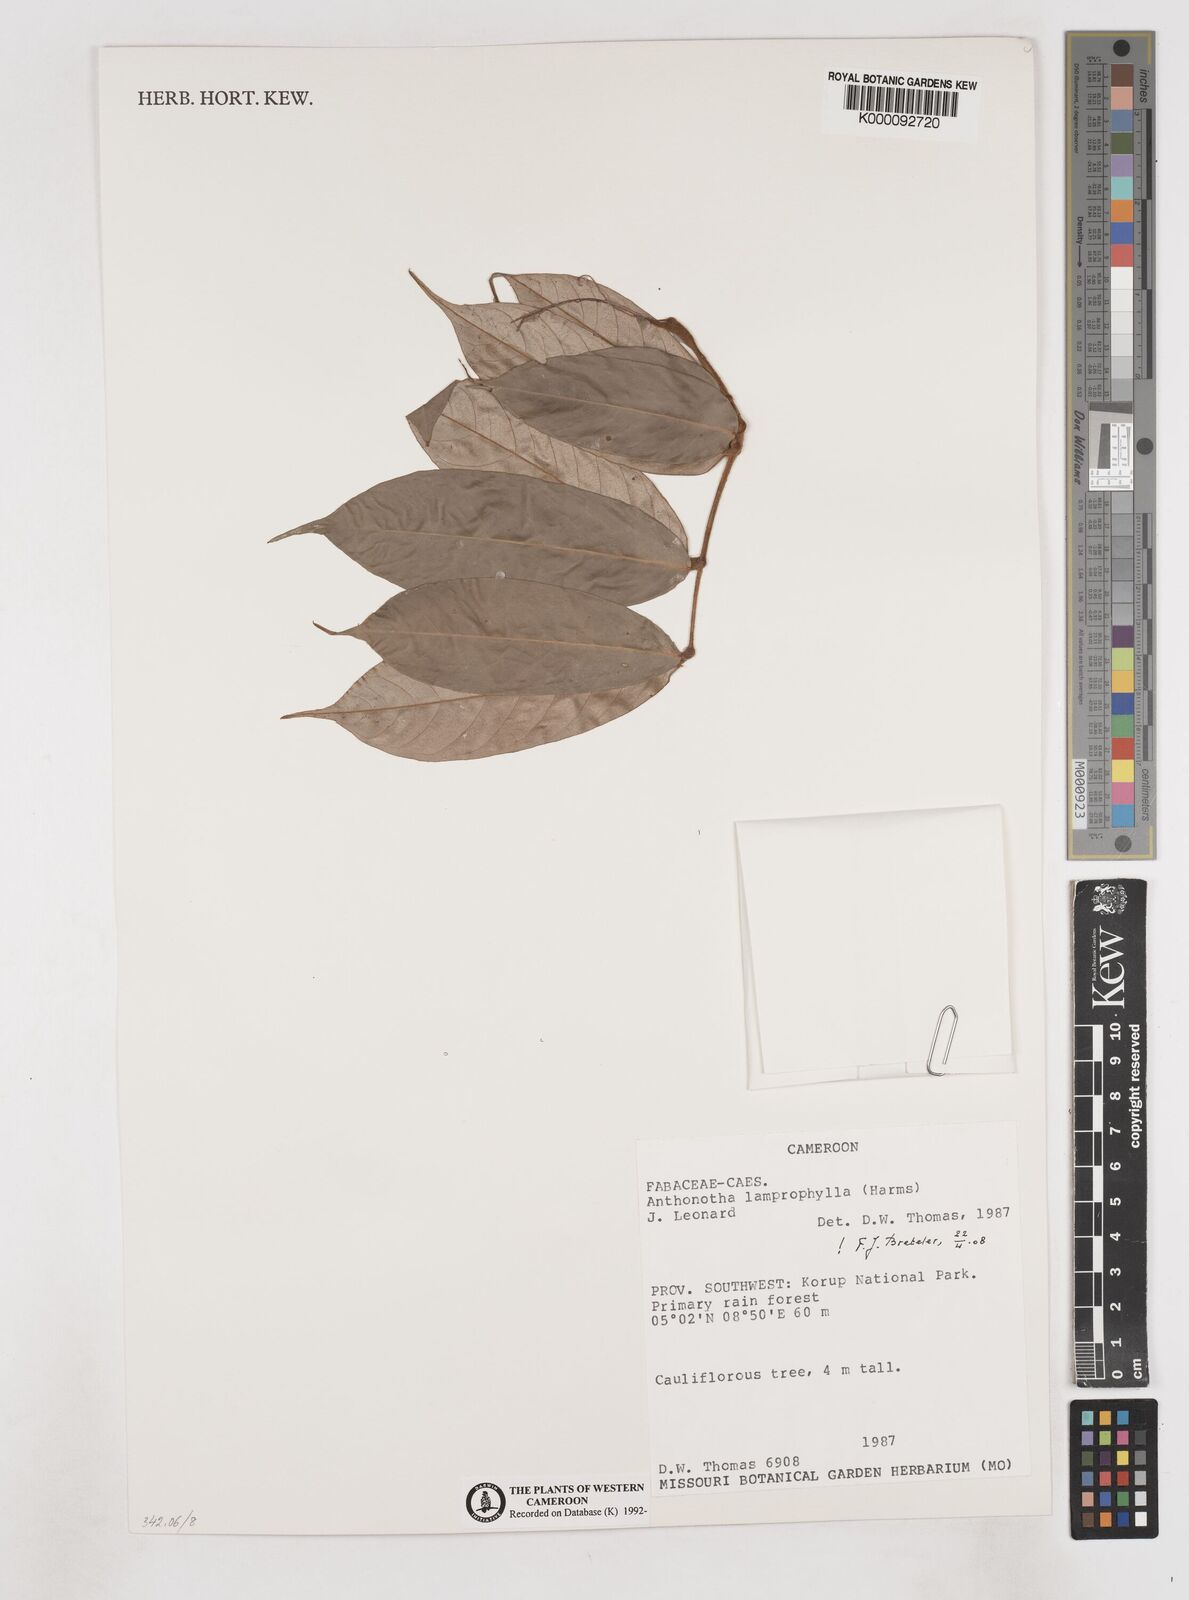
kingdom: Plantae
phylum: Tracheophyta
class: Magnoliopsida
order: Fabales
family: Fabaceae
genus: Anthonotha
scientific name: Anthonotha
